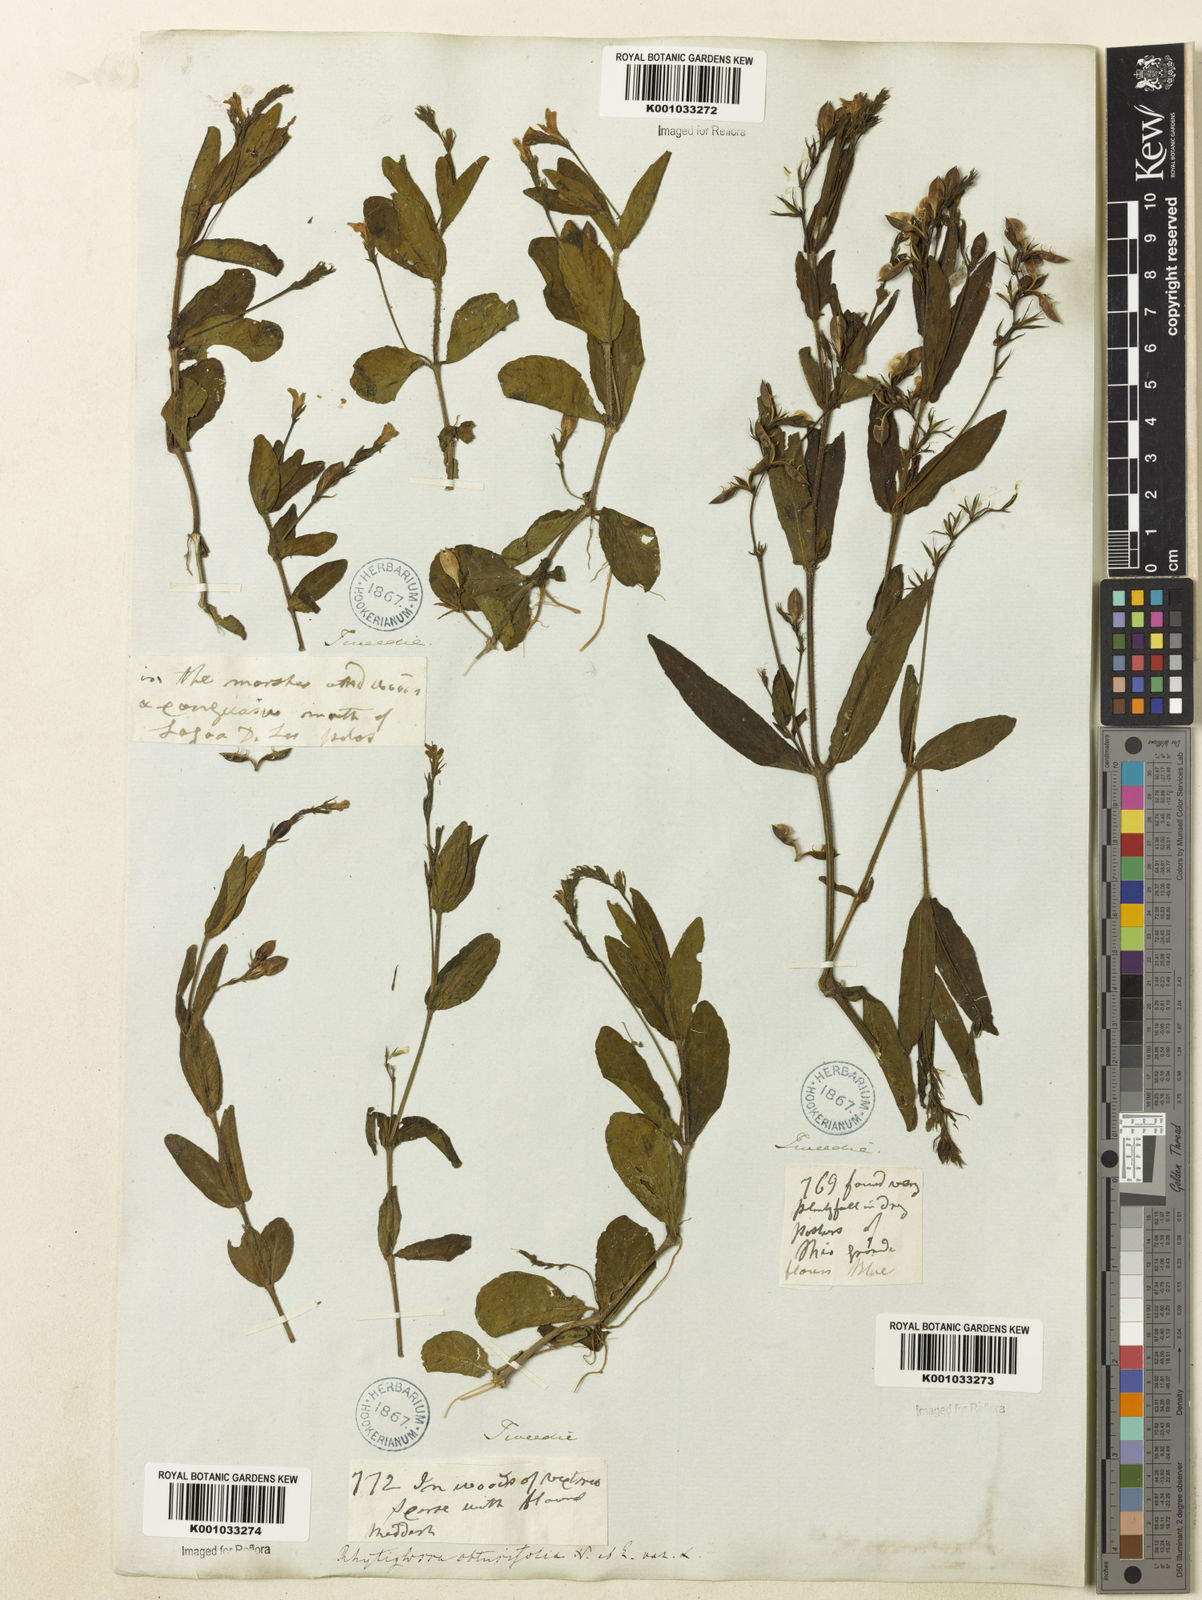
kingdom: Plantae
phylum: Tracheophyta
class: Magnoliopsida
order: Lamiales
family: Acanthaceae
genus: Dianthera
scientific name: Dianthera laevilinguis
